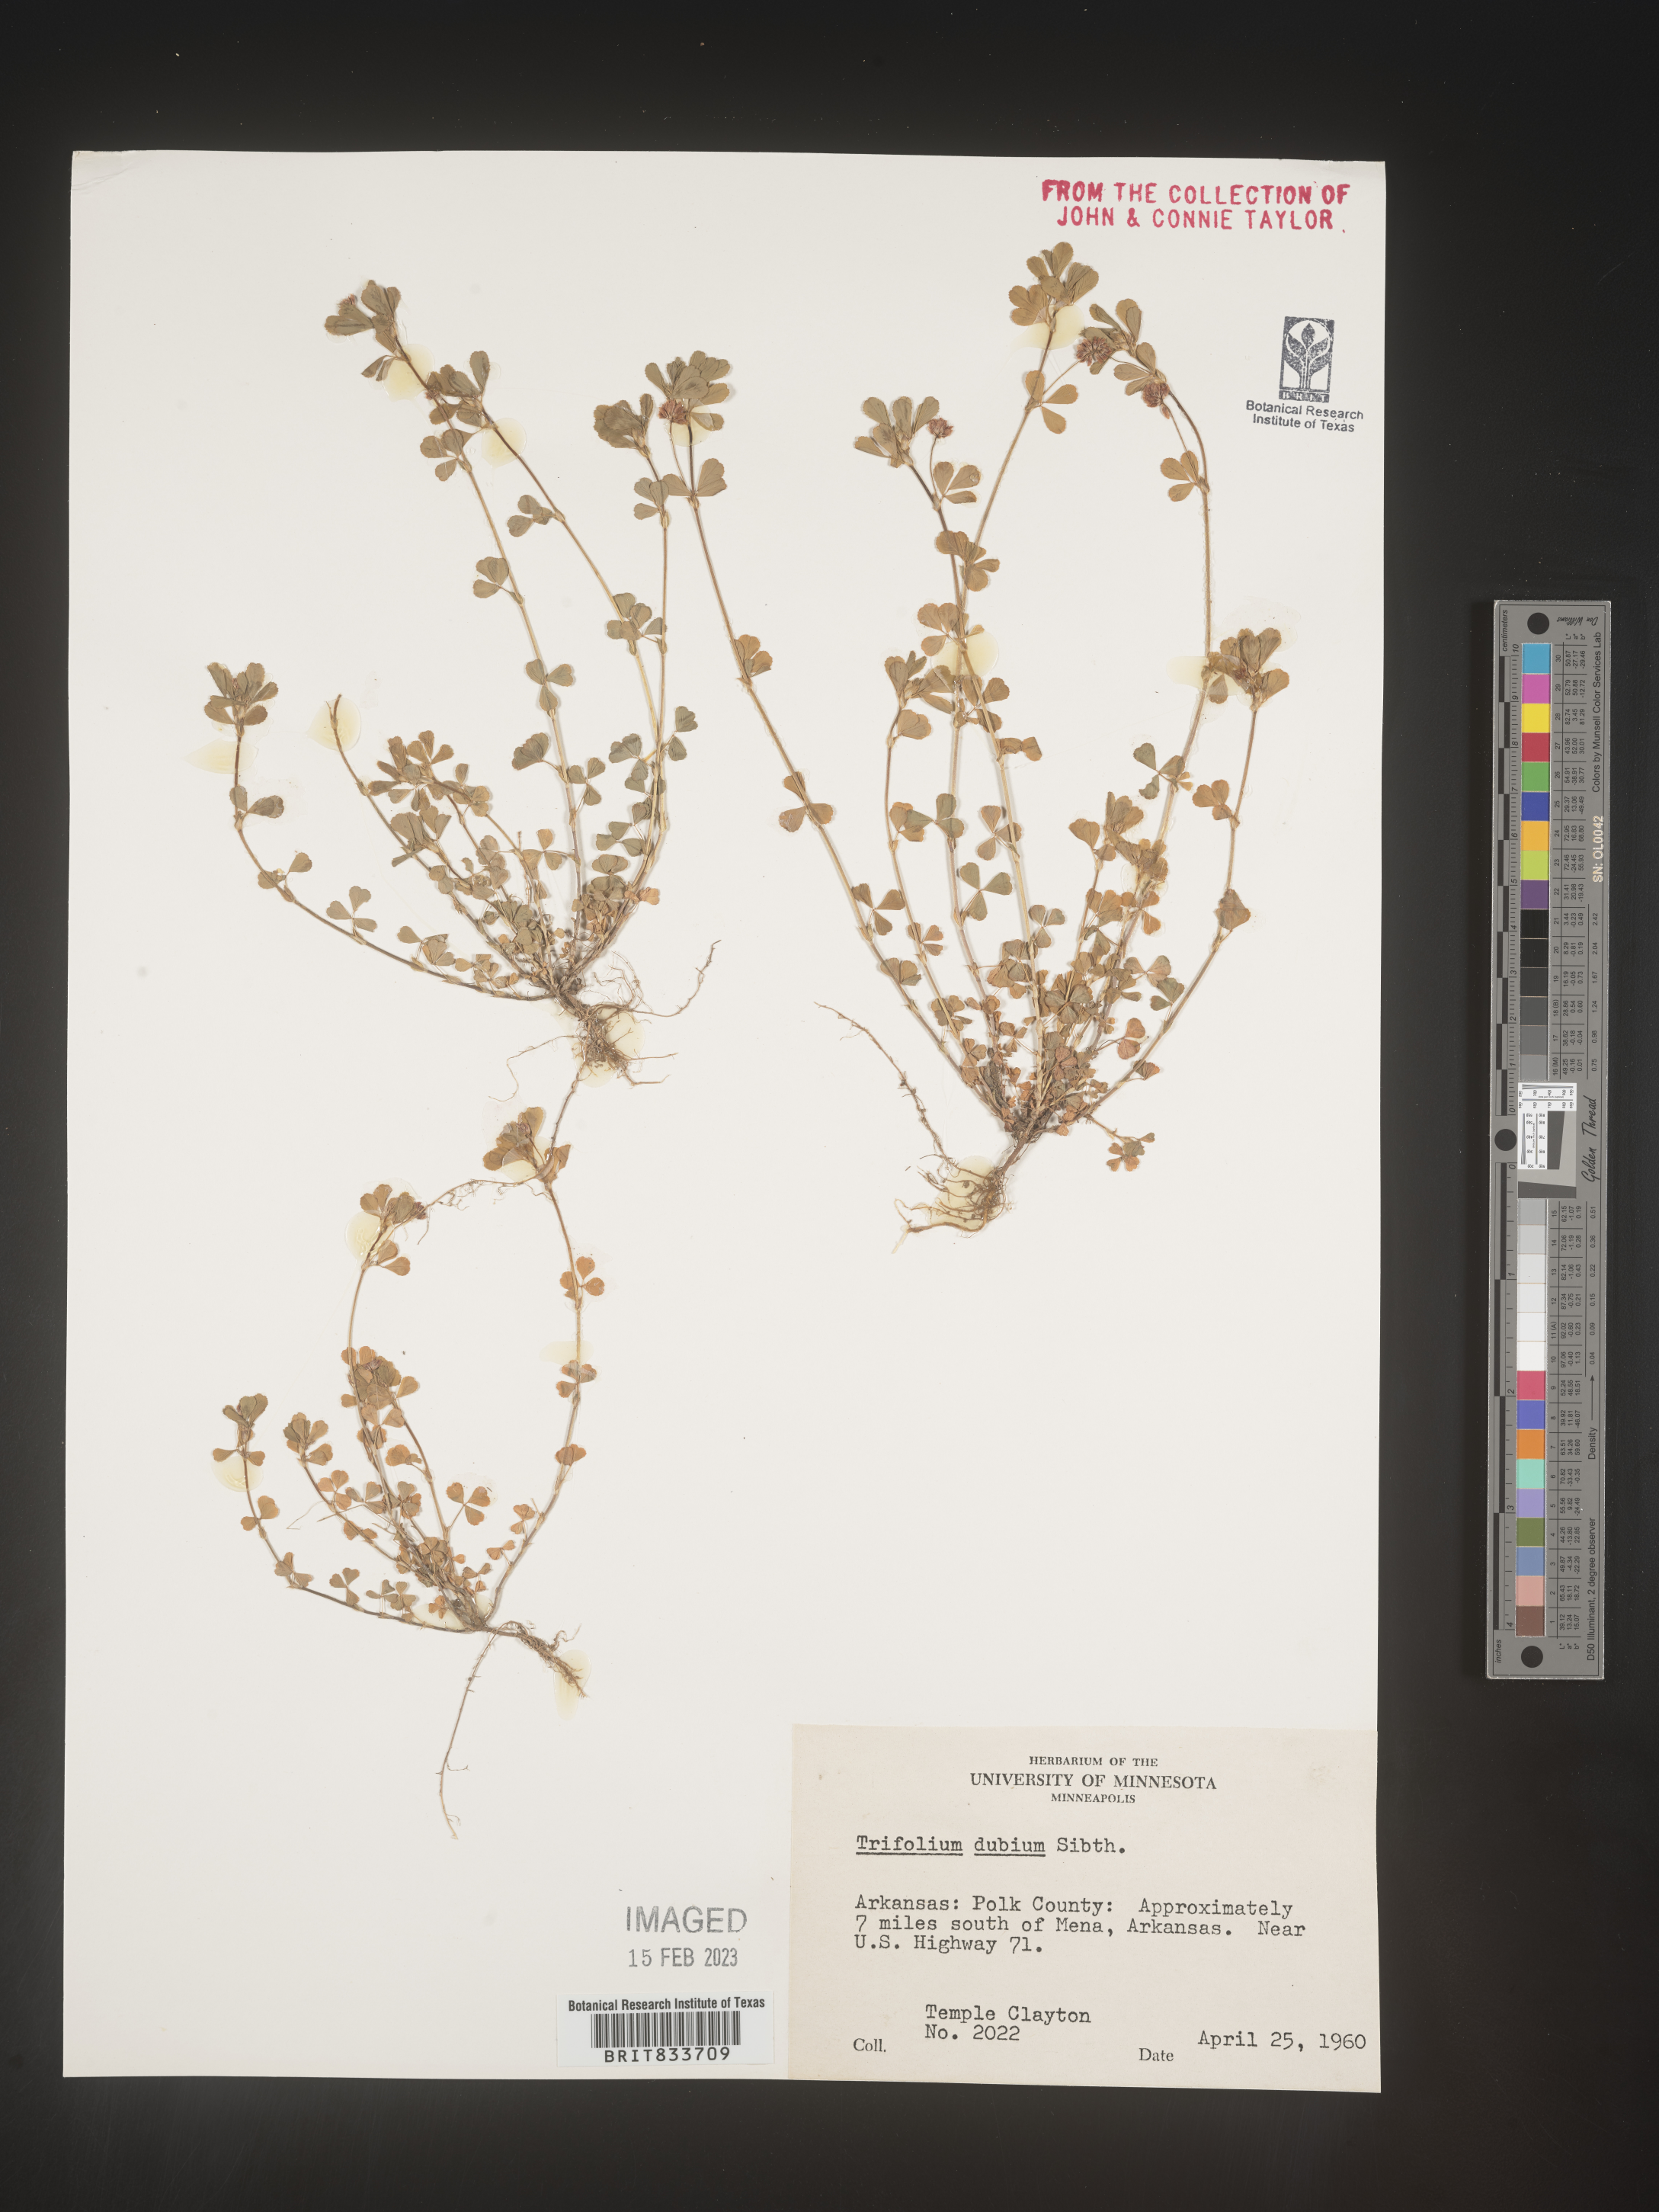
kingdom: Plantae
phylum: Tracheophyta
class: Magnoliopsida
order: Fabales
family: Fabaceae
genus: Trifolium
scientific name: Trifolium dubium
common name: Suckling clover
